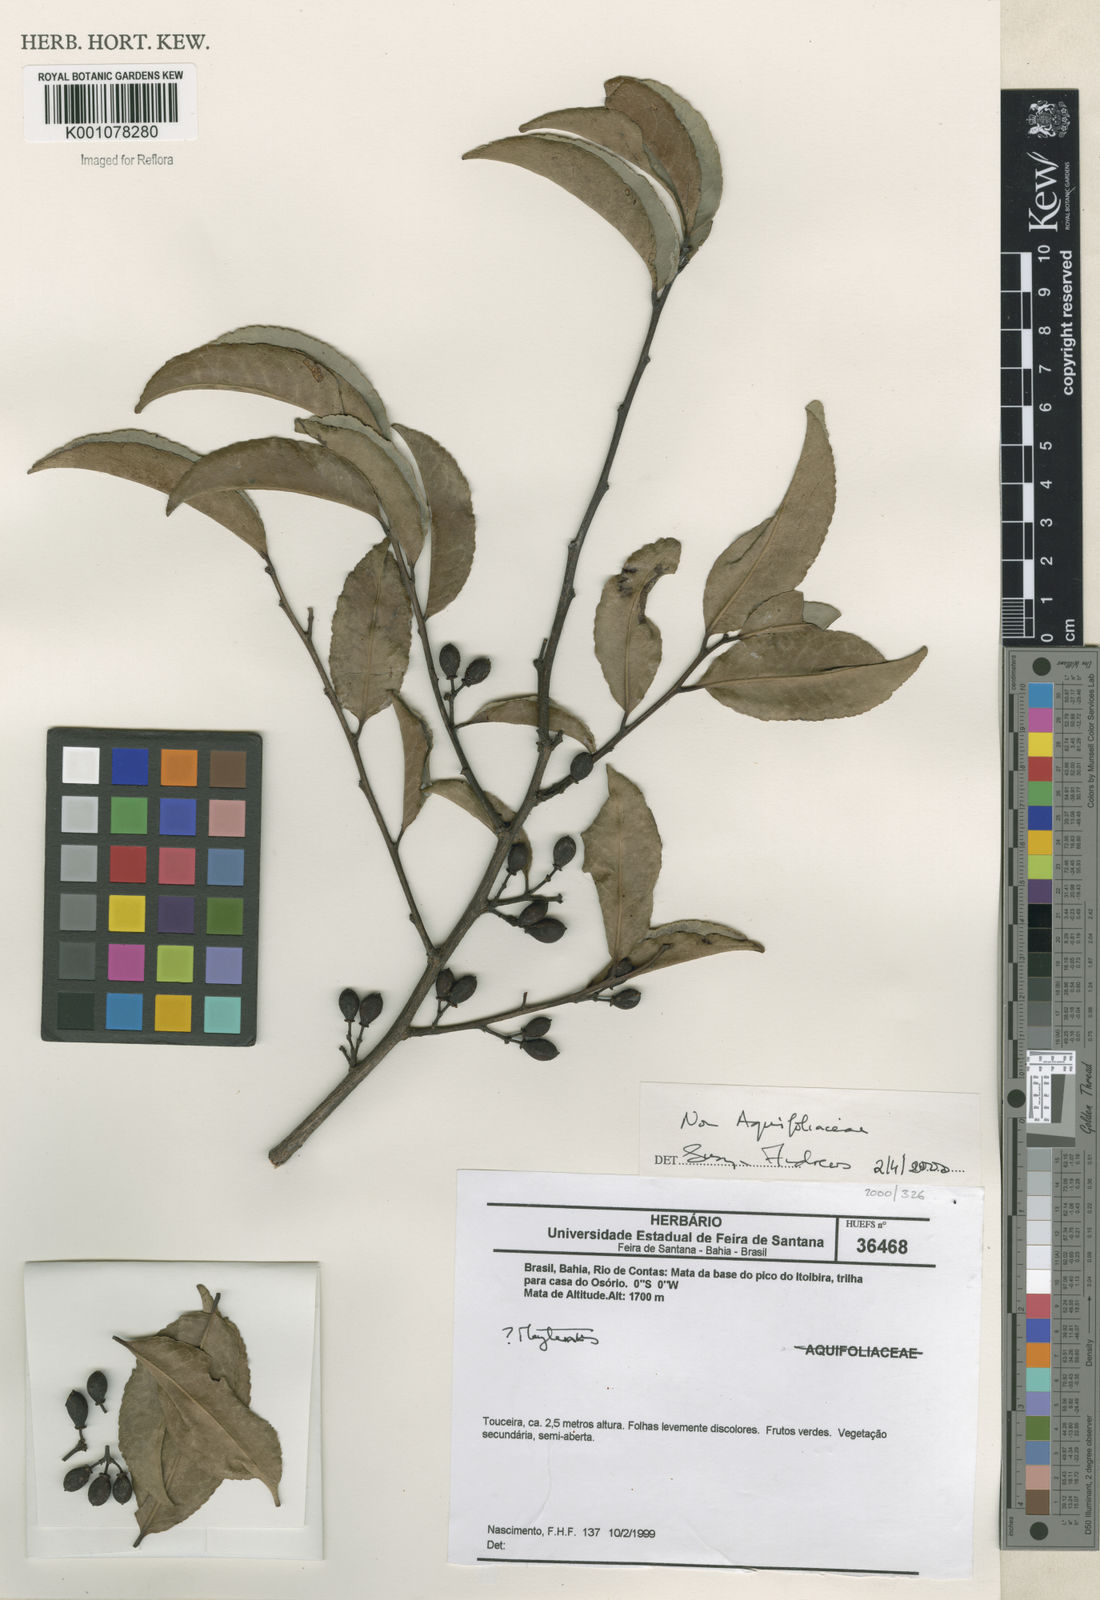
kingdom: Plantae
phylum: Tracheophyta
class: Magnoliopsida
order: Celastrales
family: Celastraceae
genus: Maytenus
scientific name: Maytenus
